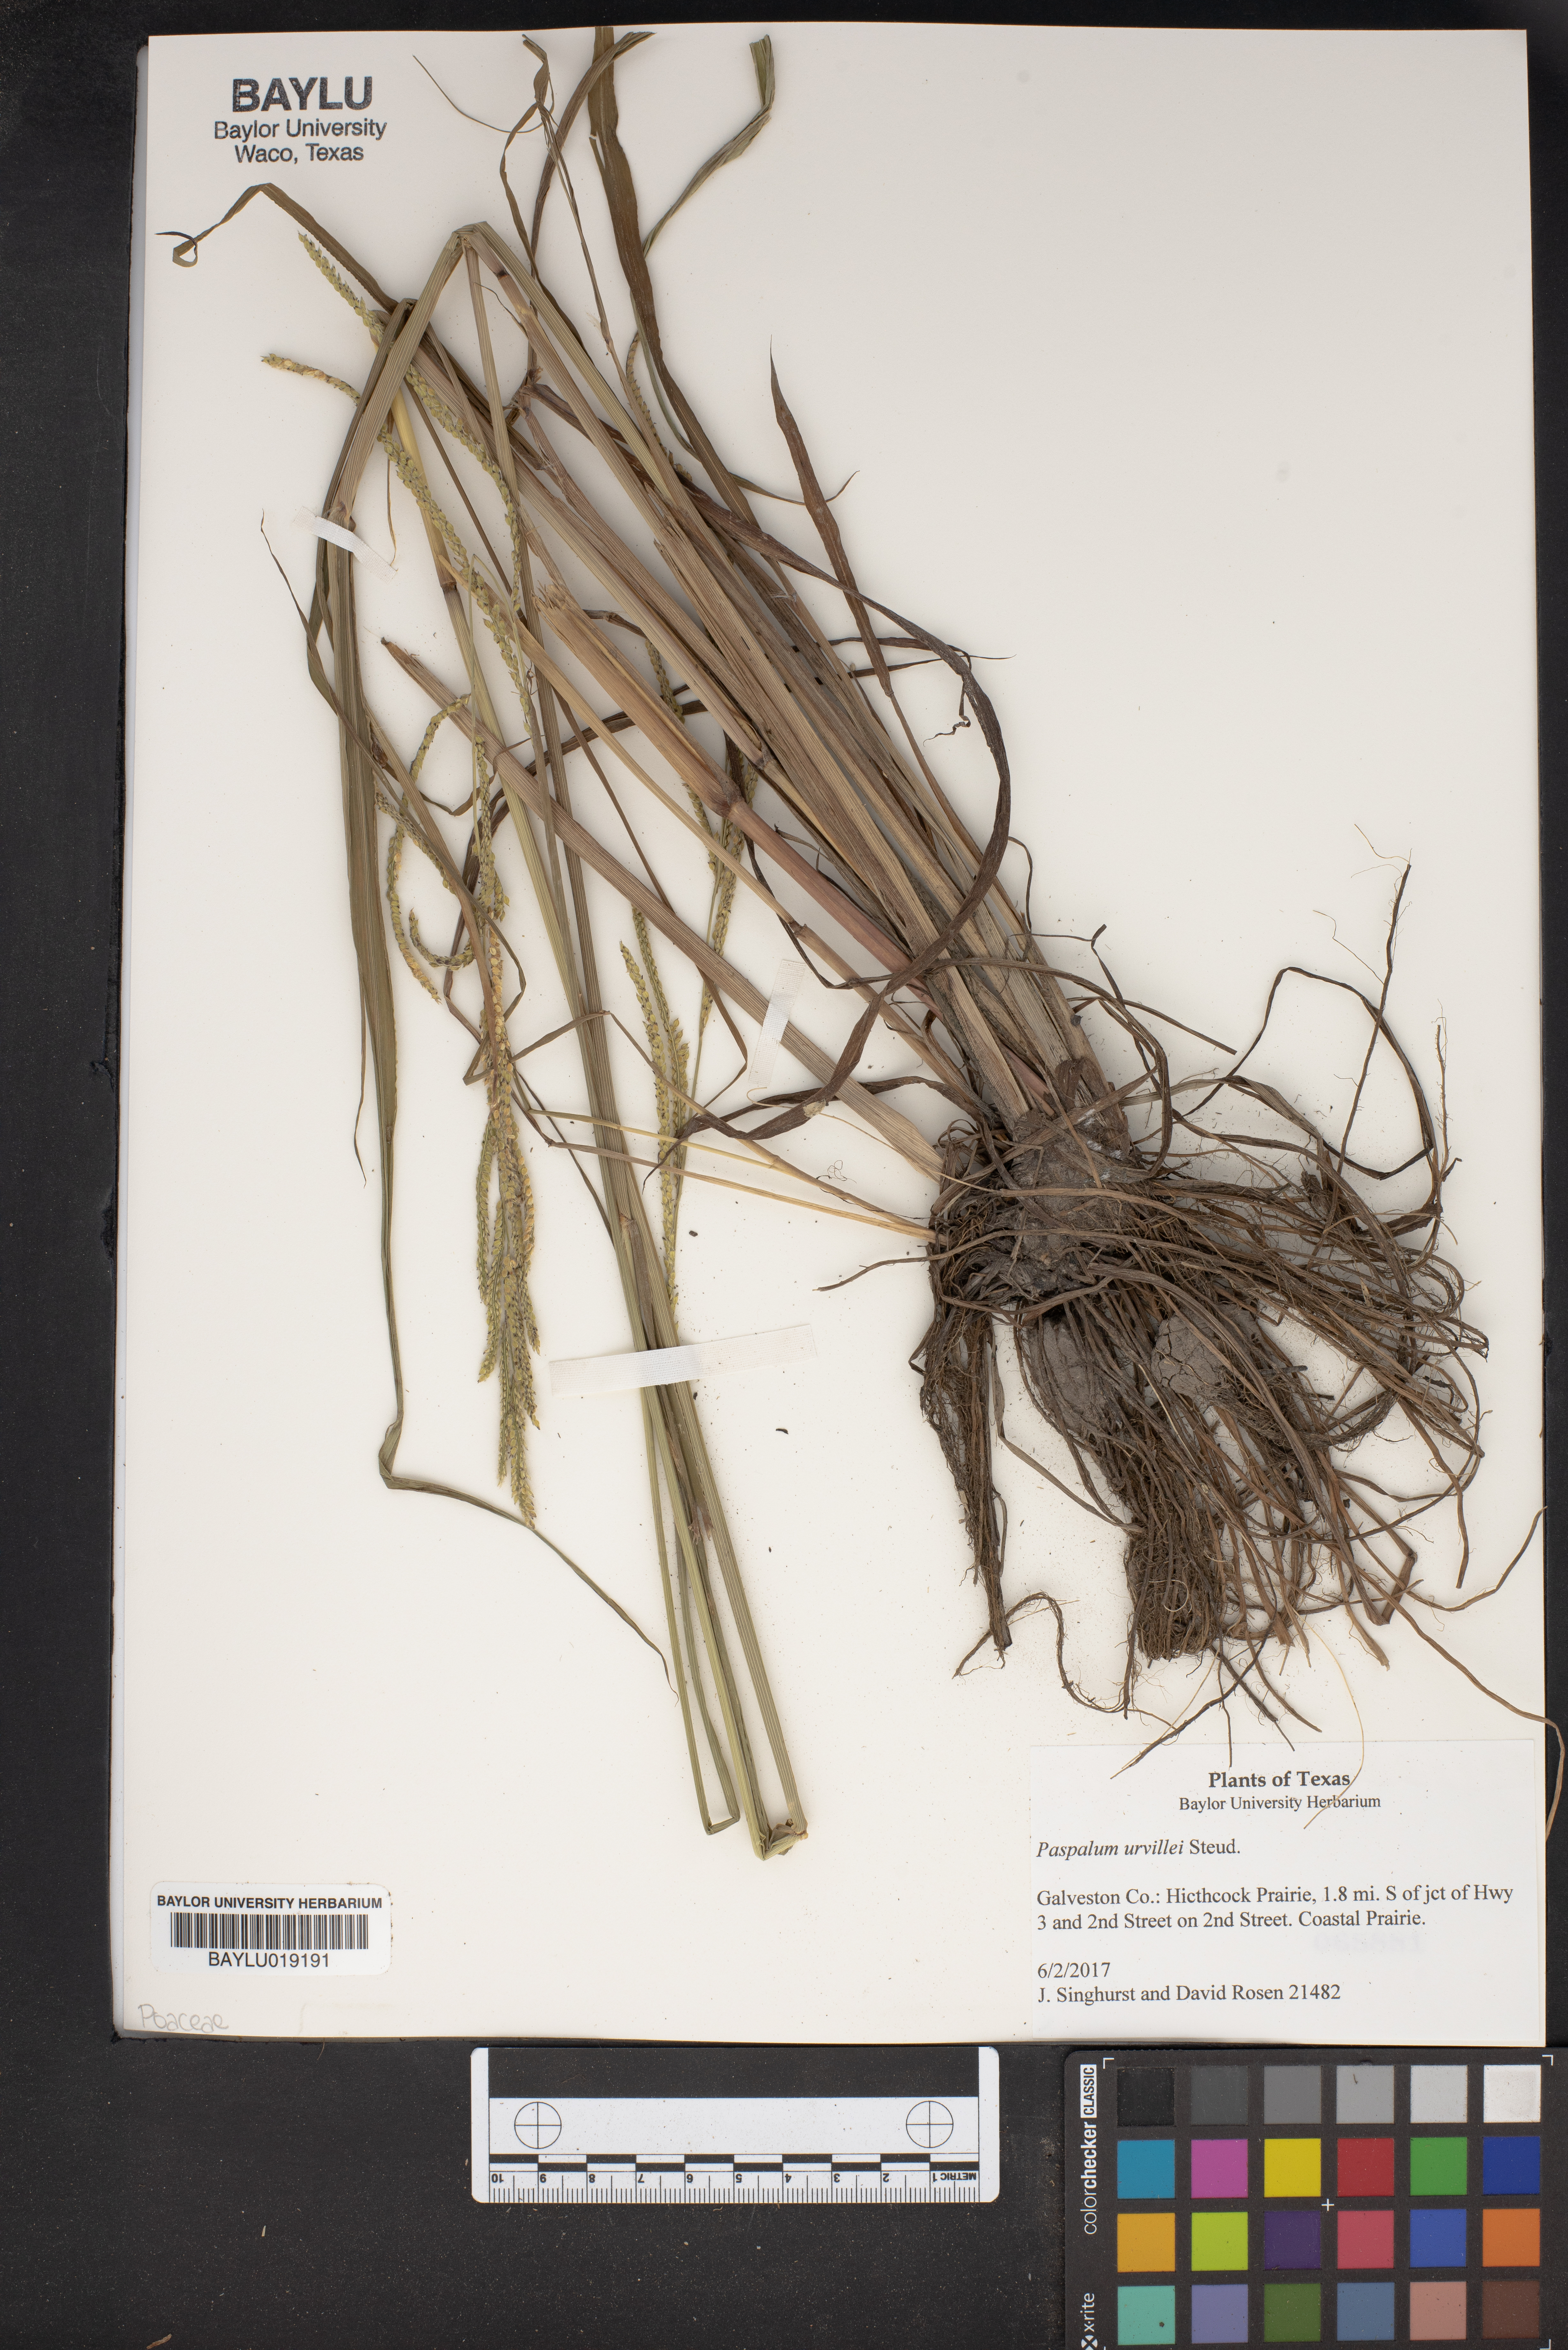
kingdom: Plantae
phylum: Tracheophyta
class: Liliopsida
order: Poales
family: Poaceae
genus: Paspalum
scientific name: Paspalum urvillei
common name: Vasey's grass
